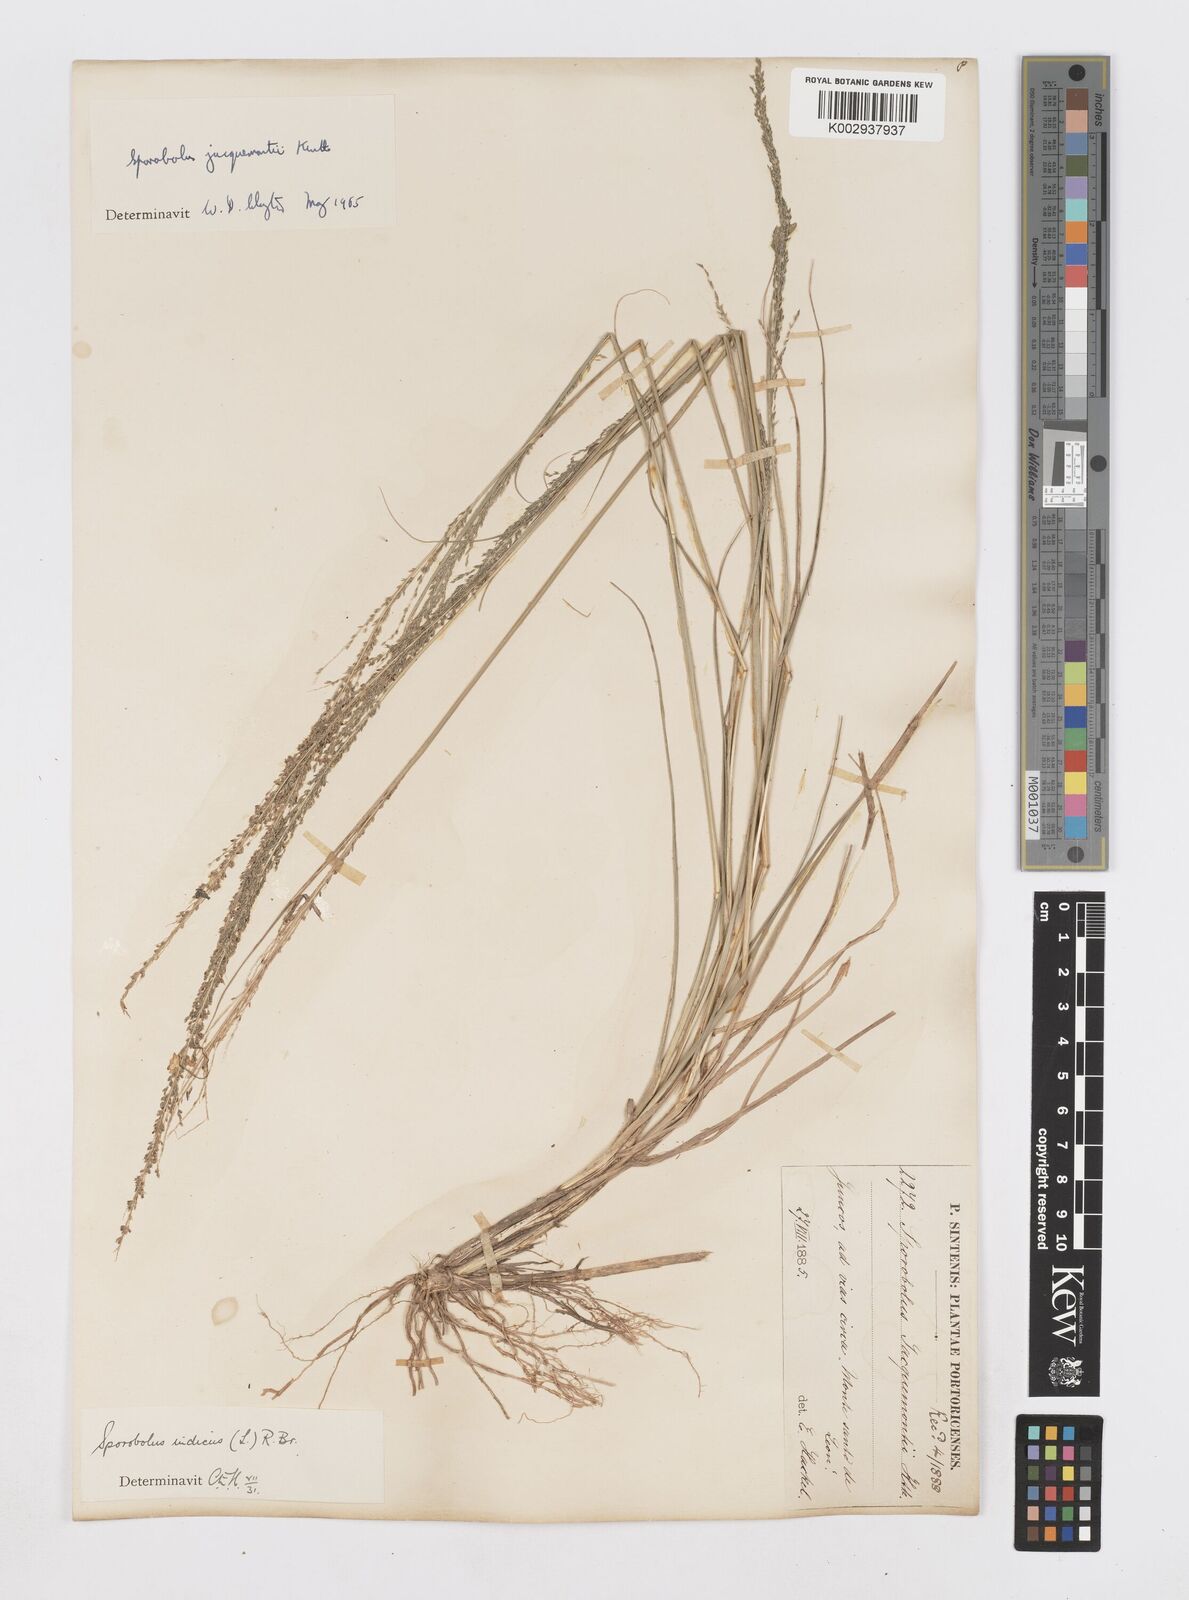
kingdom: Plantae
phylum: Tracheophyta
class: Liliopsida
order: Poales
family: Poaceae
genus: Sporobolus
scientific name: Sporobolus pyramidalis
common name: West indian dropseed
